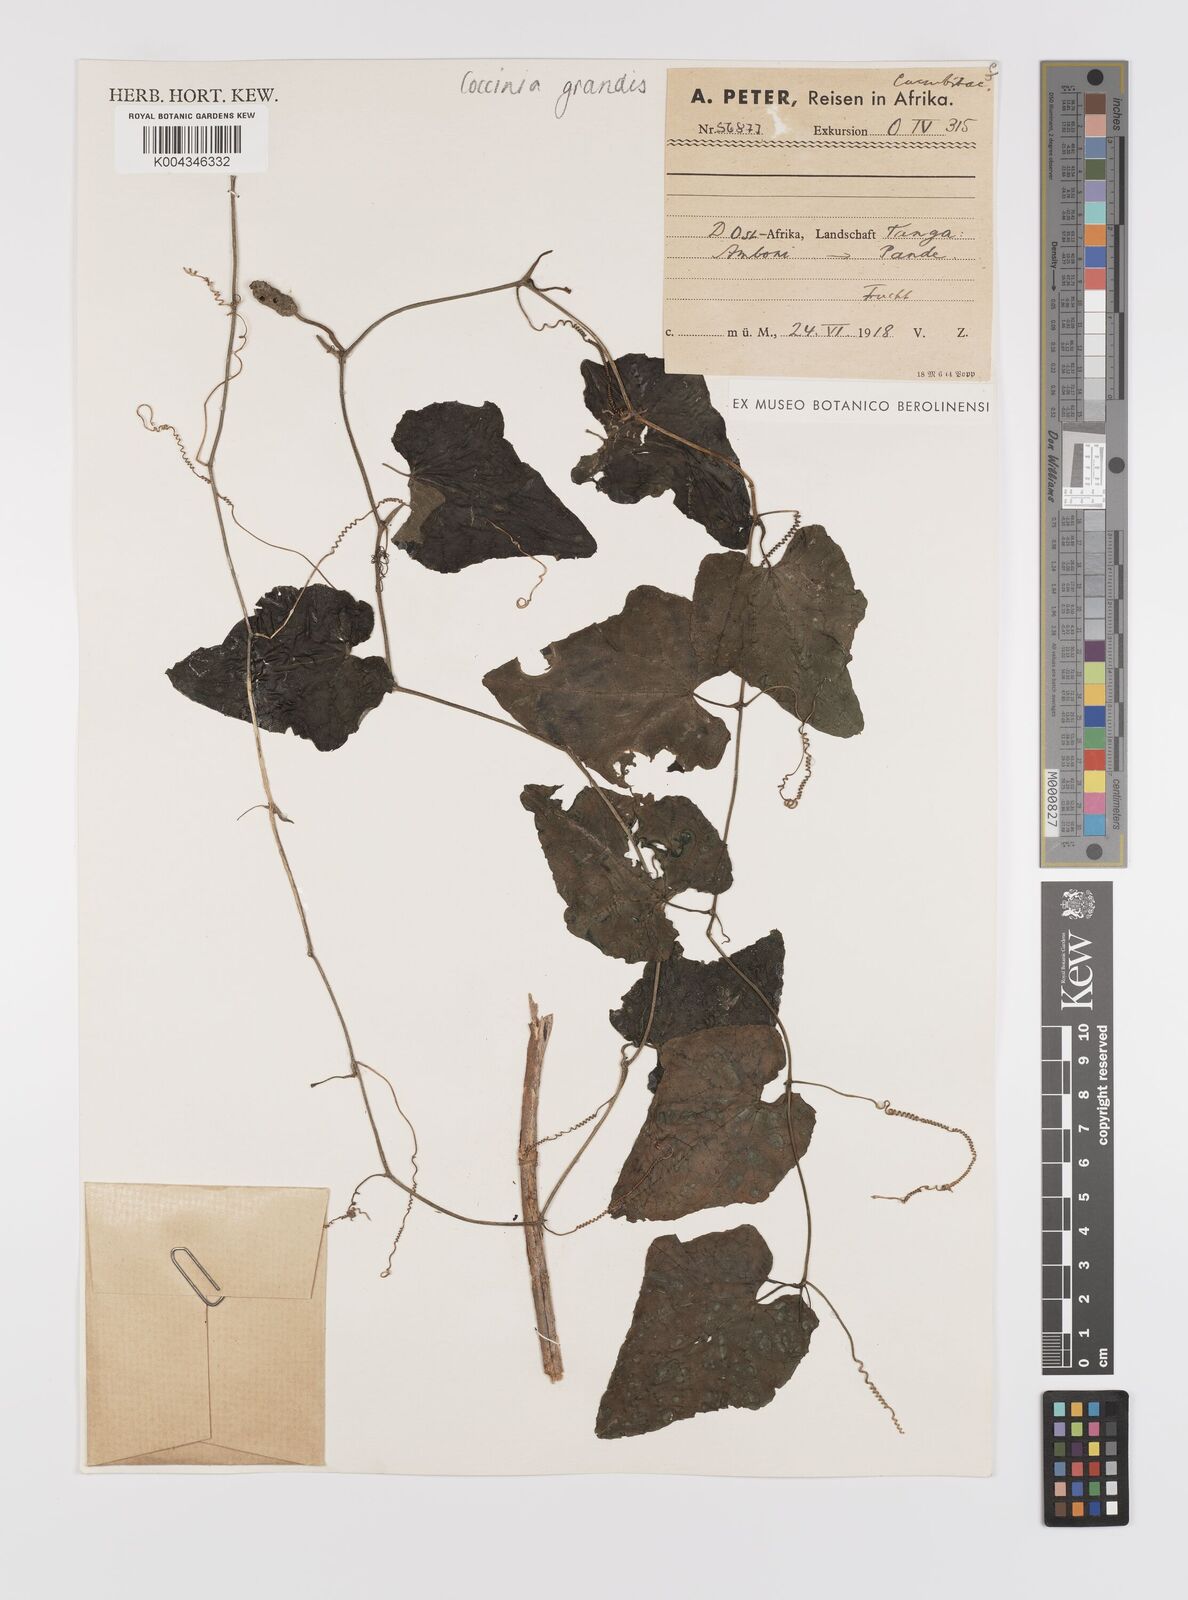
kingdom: Plantae
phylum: Tracheophyta
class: Magnoliopsida
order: Cucurbitales
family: Cucurbitaceae
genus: Coccinia
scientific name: Coccinia grandis
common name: Ivy gourd
